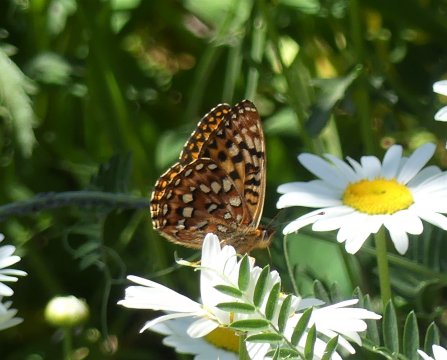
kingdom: Animalia
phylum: Arthropoda
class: Insecta
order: Lepidoptera
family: Nymphalidae
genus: Speyeria
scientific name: Speyeria mormonia
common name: Mormon Fritillary
